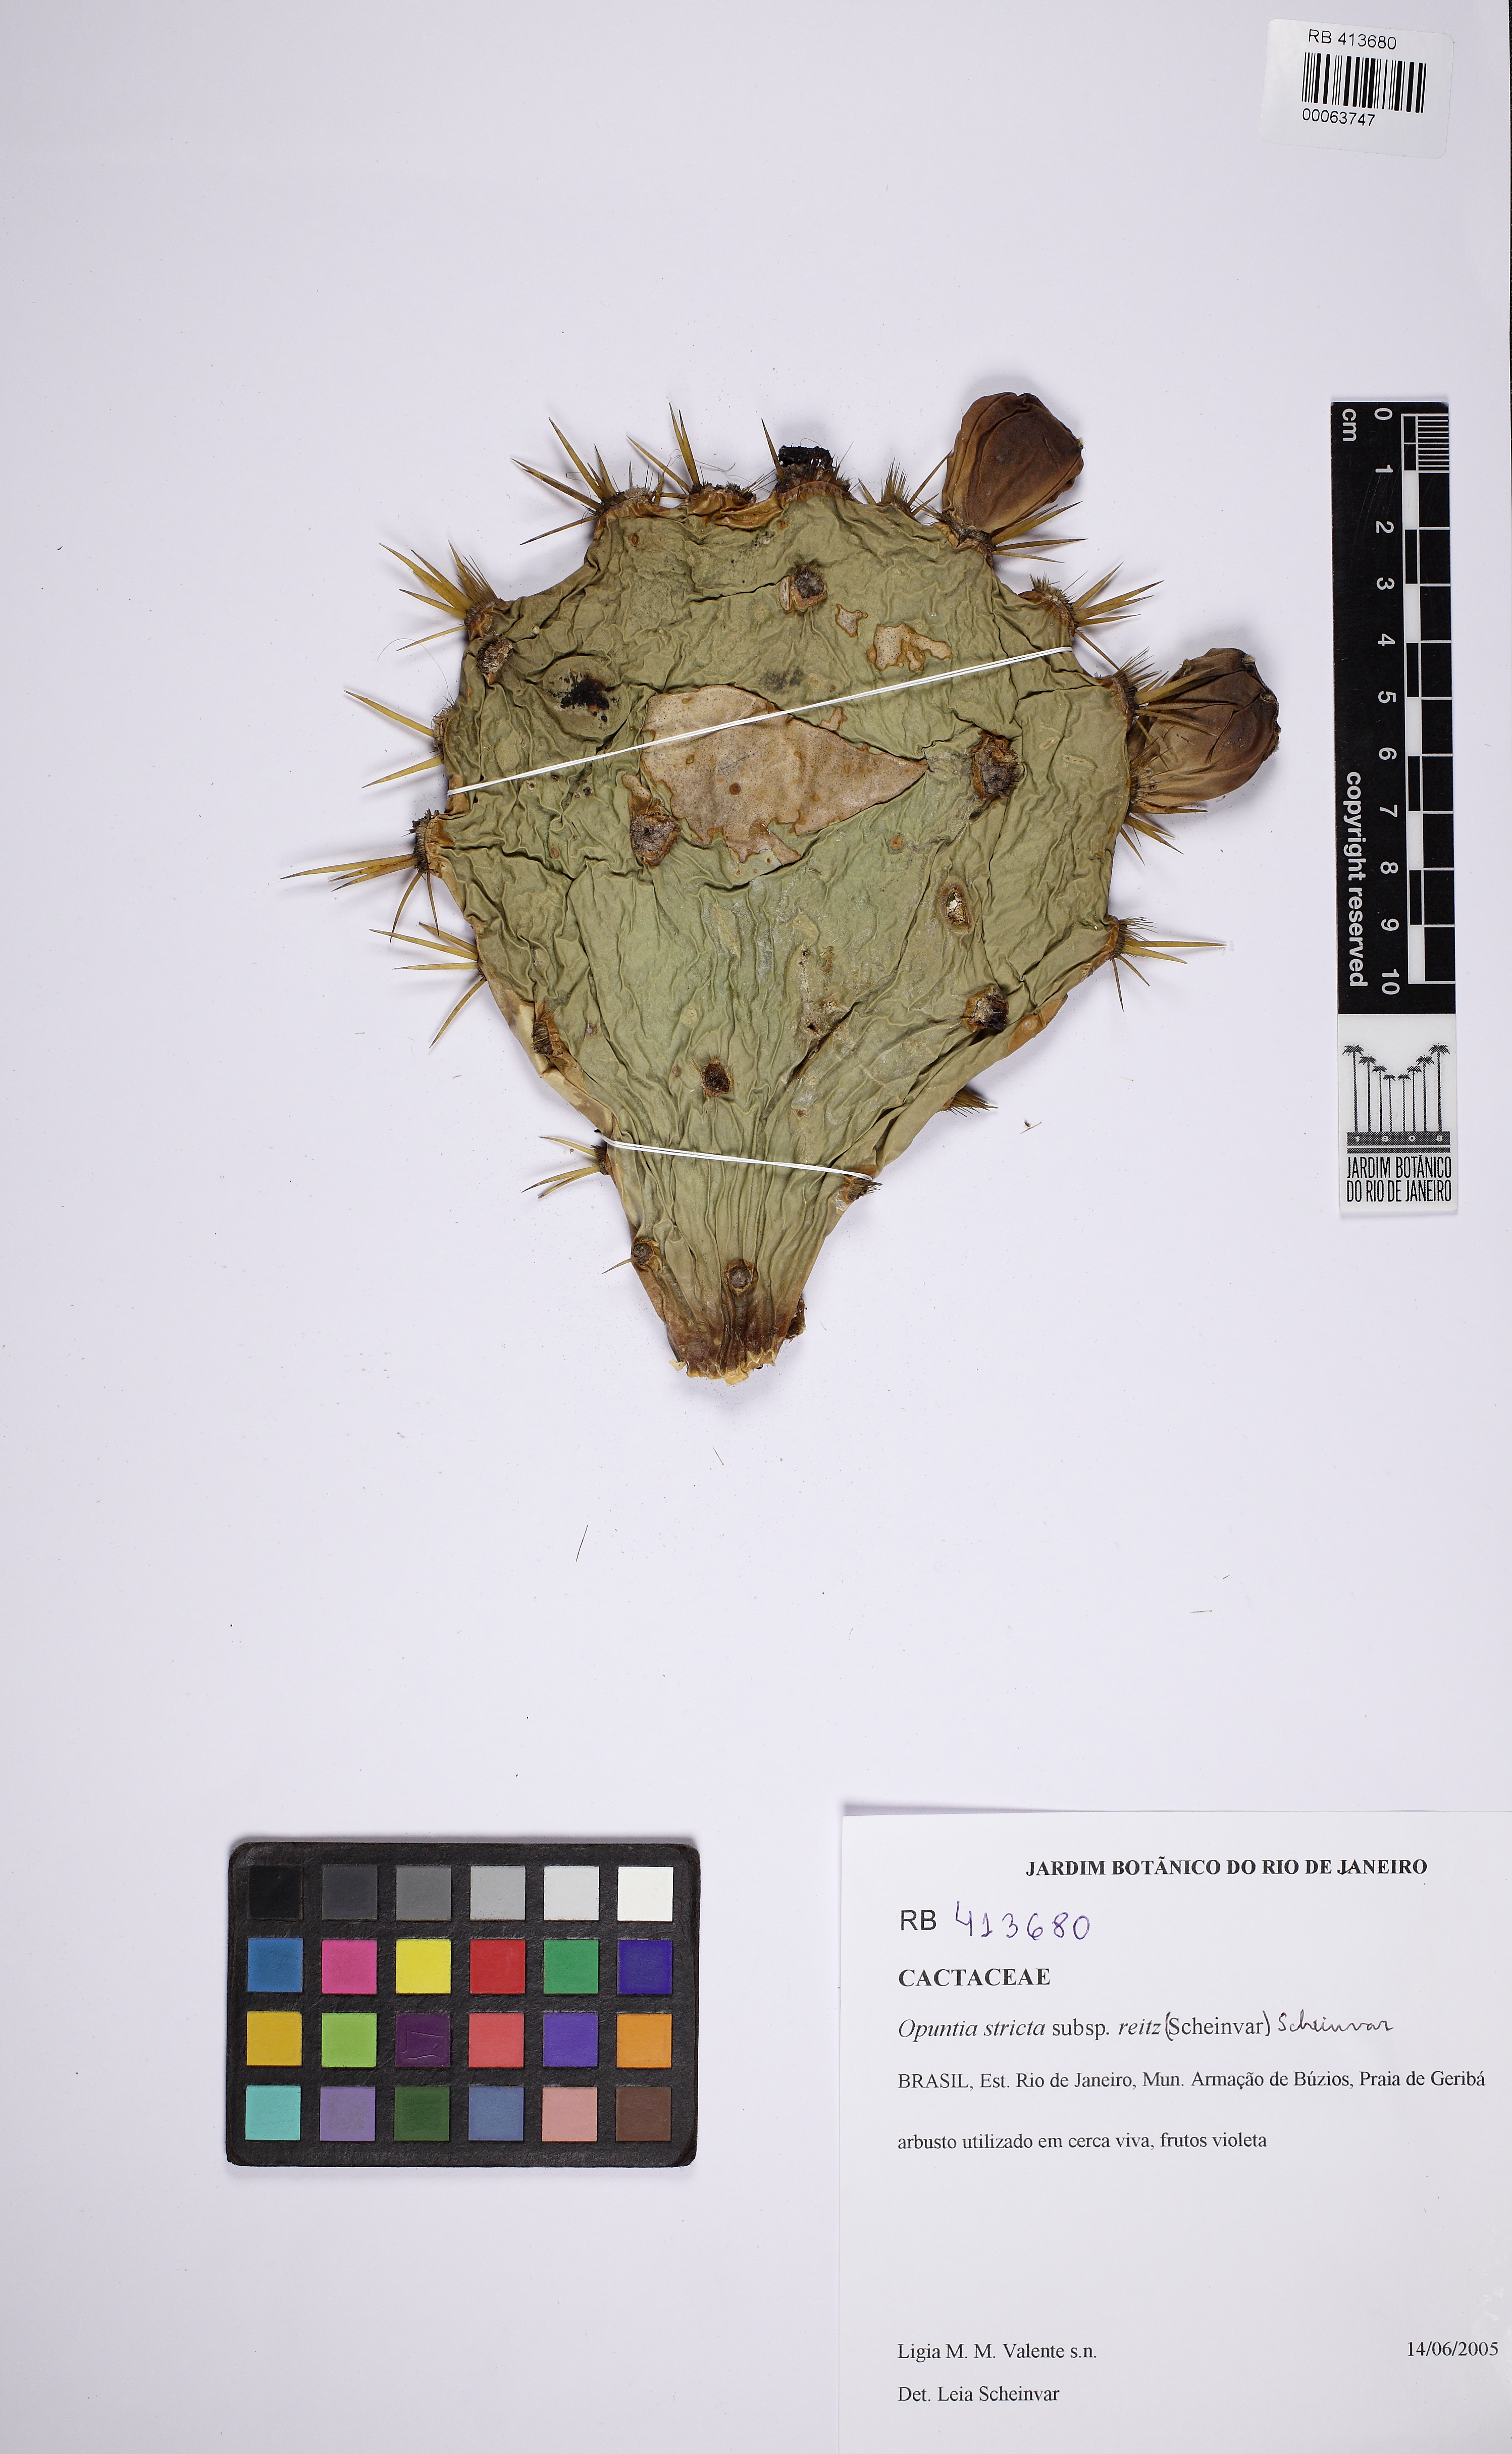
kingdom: Plantae
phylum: Tracheophyta
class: Magnoliopsida
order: Caryophyllales
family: Cactaceae
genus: Opuntia
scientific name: Opuntia stricta
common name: Erect pricklypear
